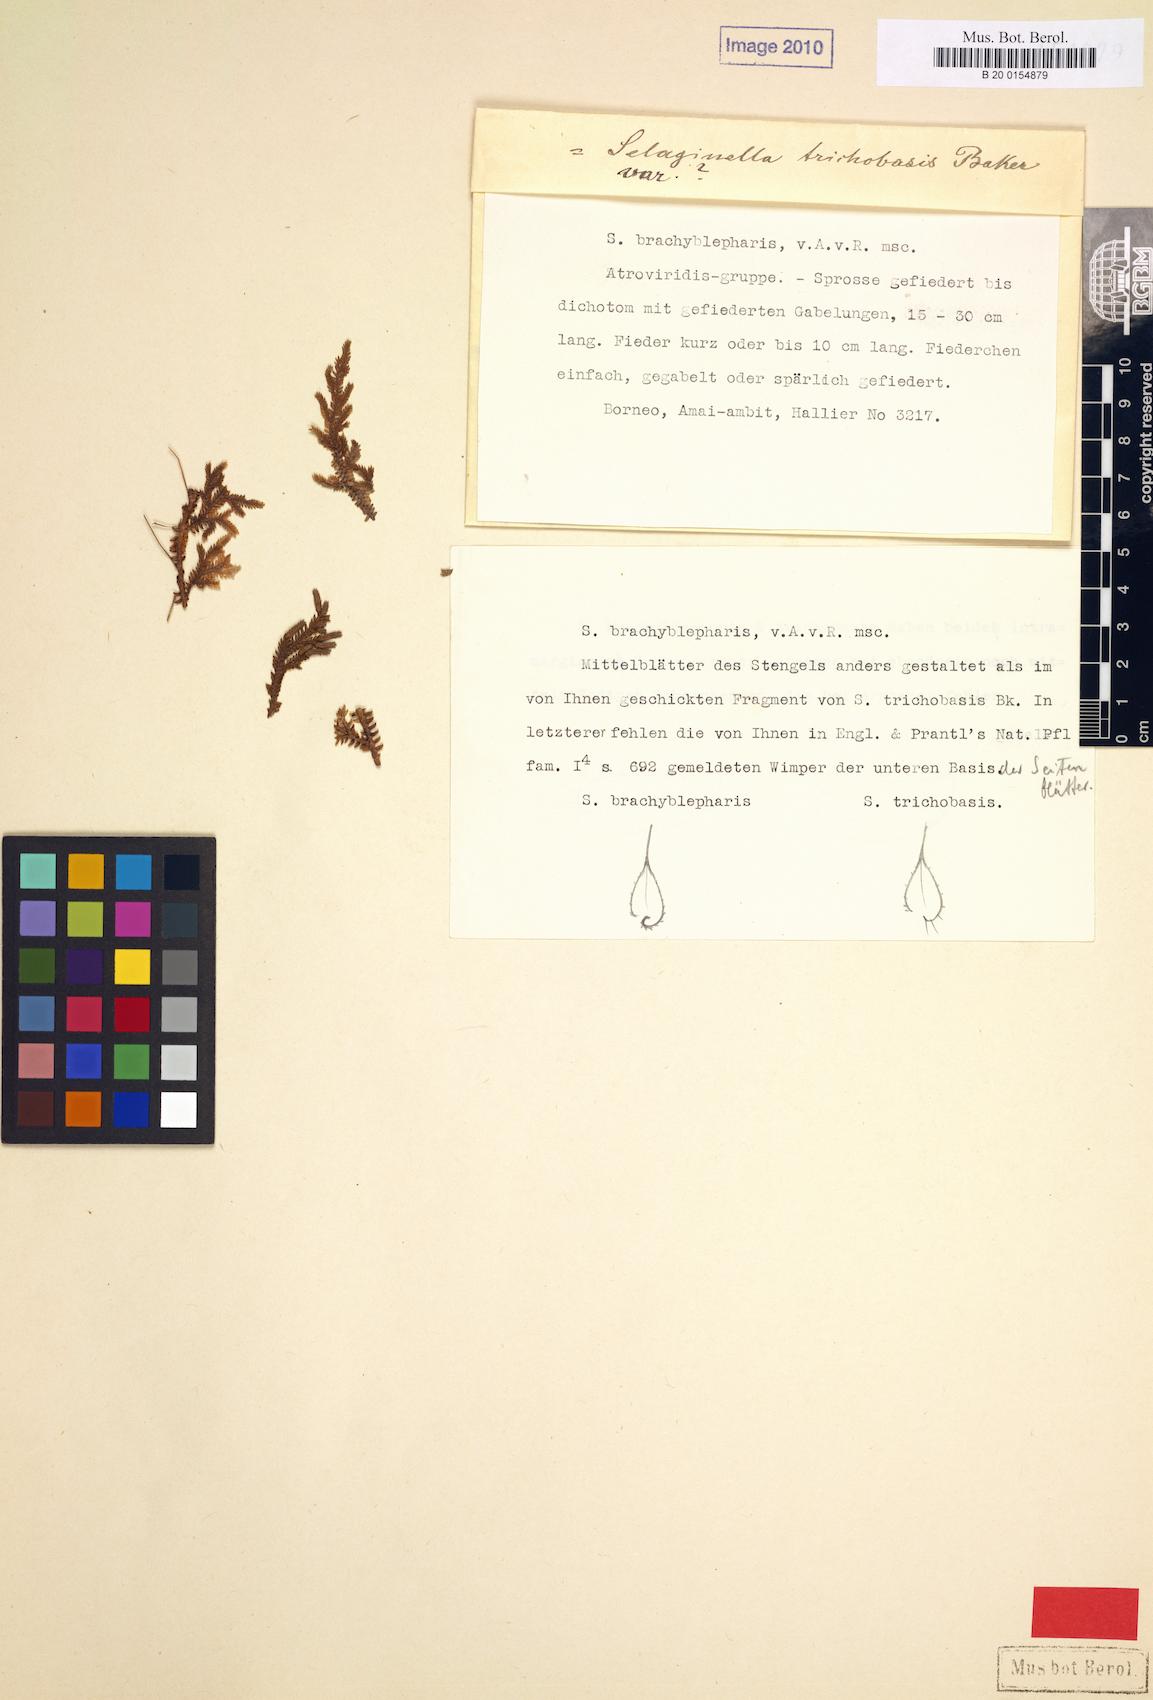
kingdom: Plantae
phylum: Tracheophyta
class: Lycopodiopsida
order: Selaginellales
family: Selaginellaceae
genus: Selaginella
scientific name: Selaginella brachyblepharis
